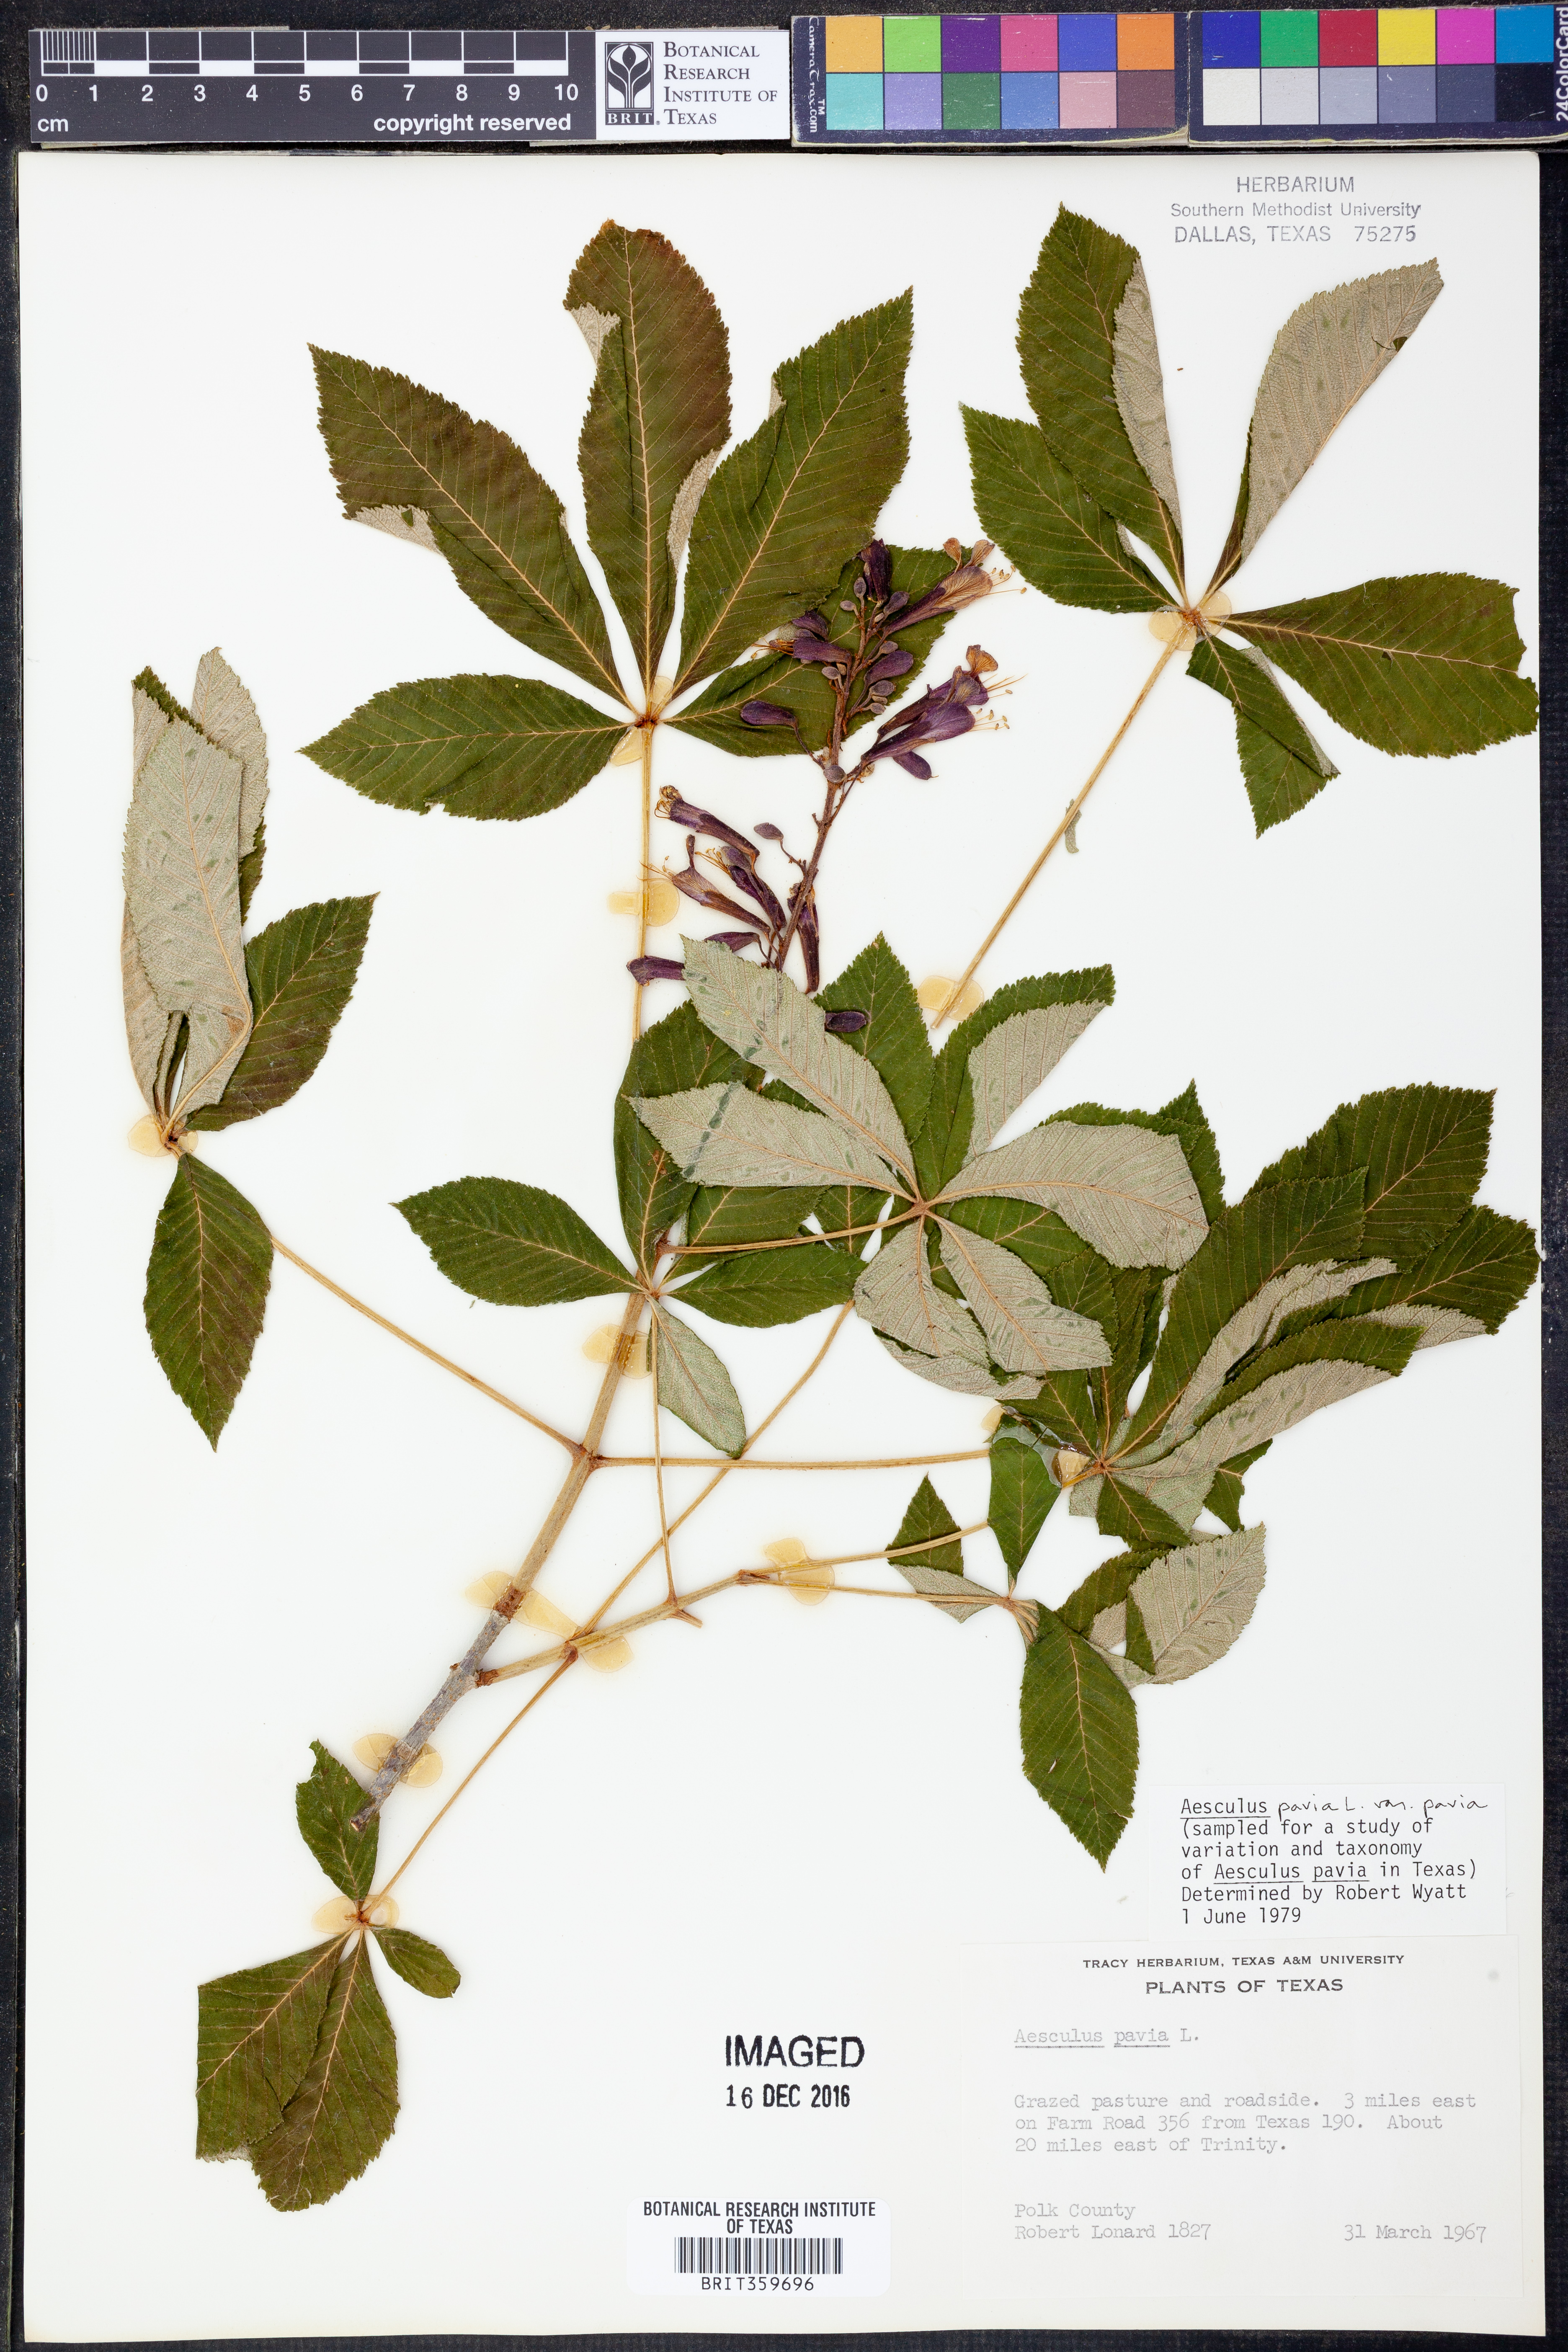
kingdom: Plantae
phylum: Tracheophyta
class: Magnoliopsida
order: Sapindales
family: Sapindaceae
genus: Aesculus
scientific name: Aesculus pavia
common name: Red buckeye
